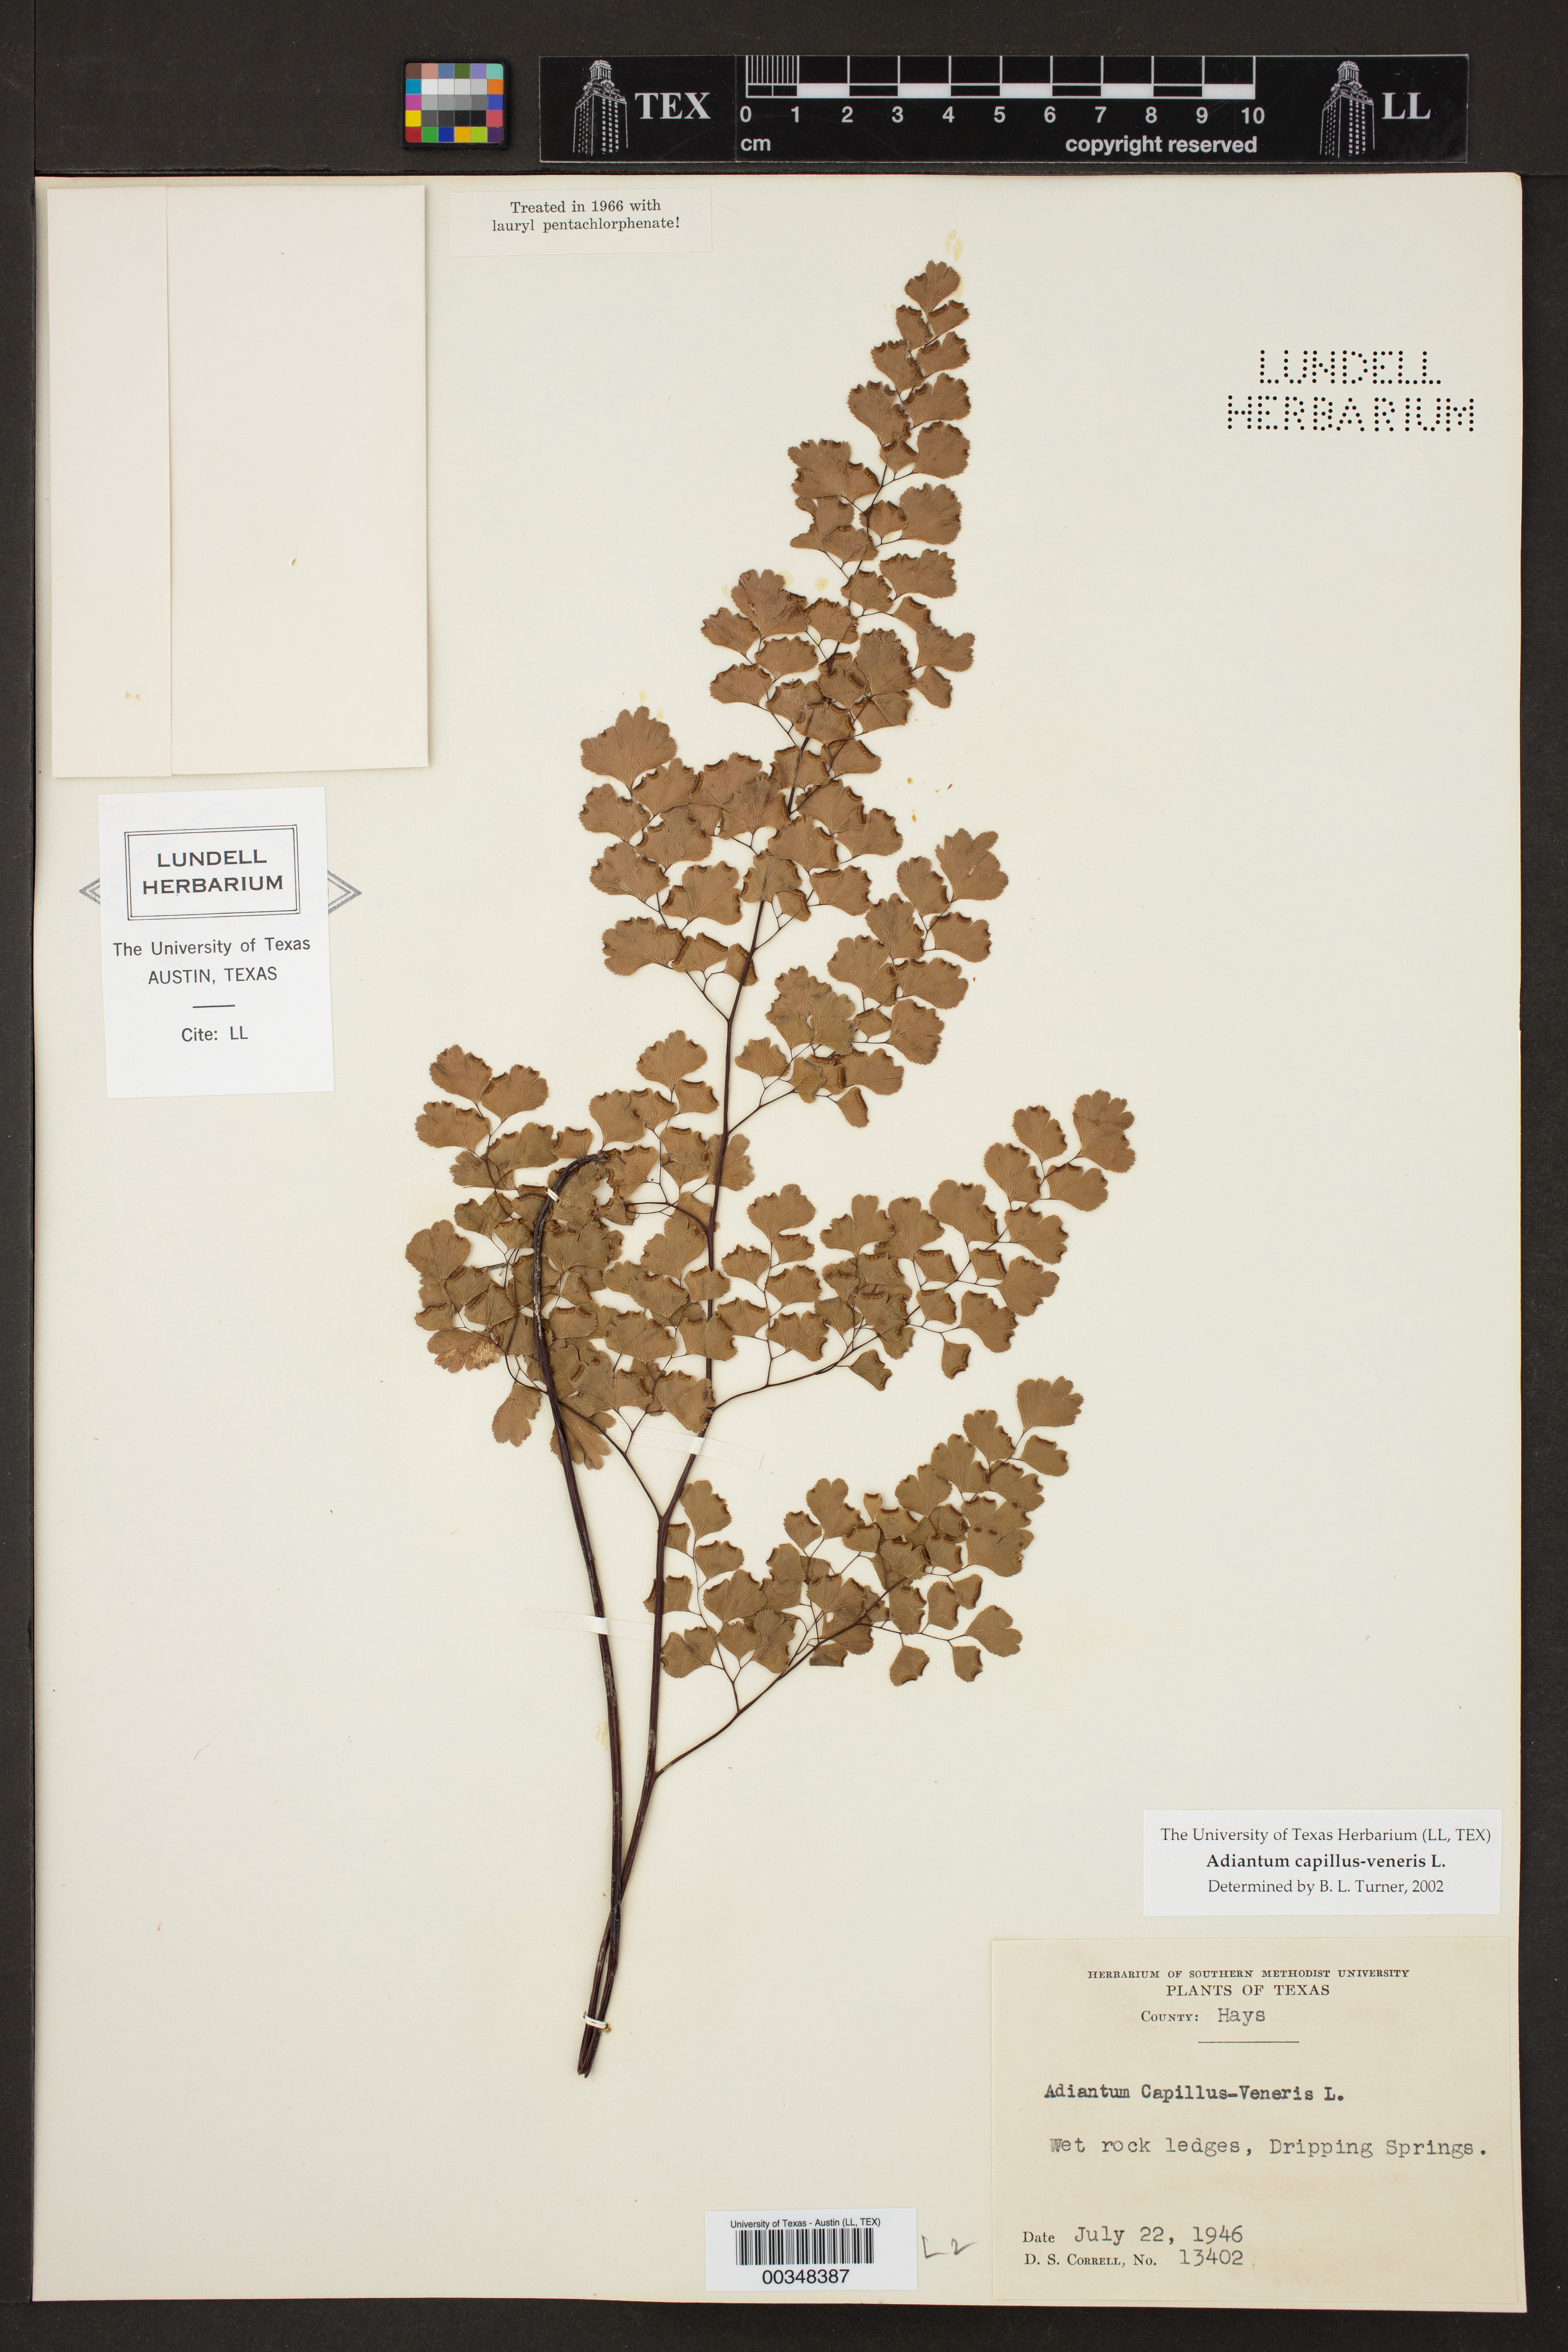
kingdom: Plantae
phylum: Tracheophyta
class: Polypodiopsida
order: Polypodiales
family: Pteridaceae
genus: Adiantum
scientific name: Adiantum capillus-veneris
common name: Maidenhair fern
